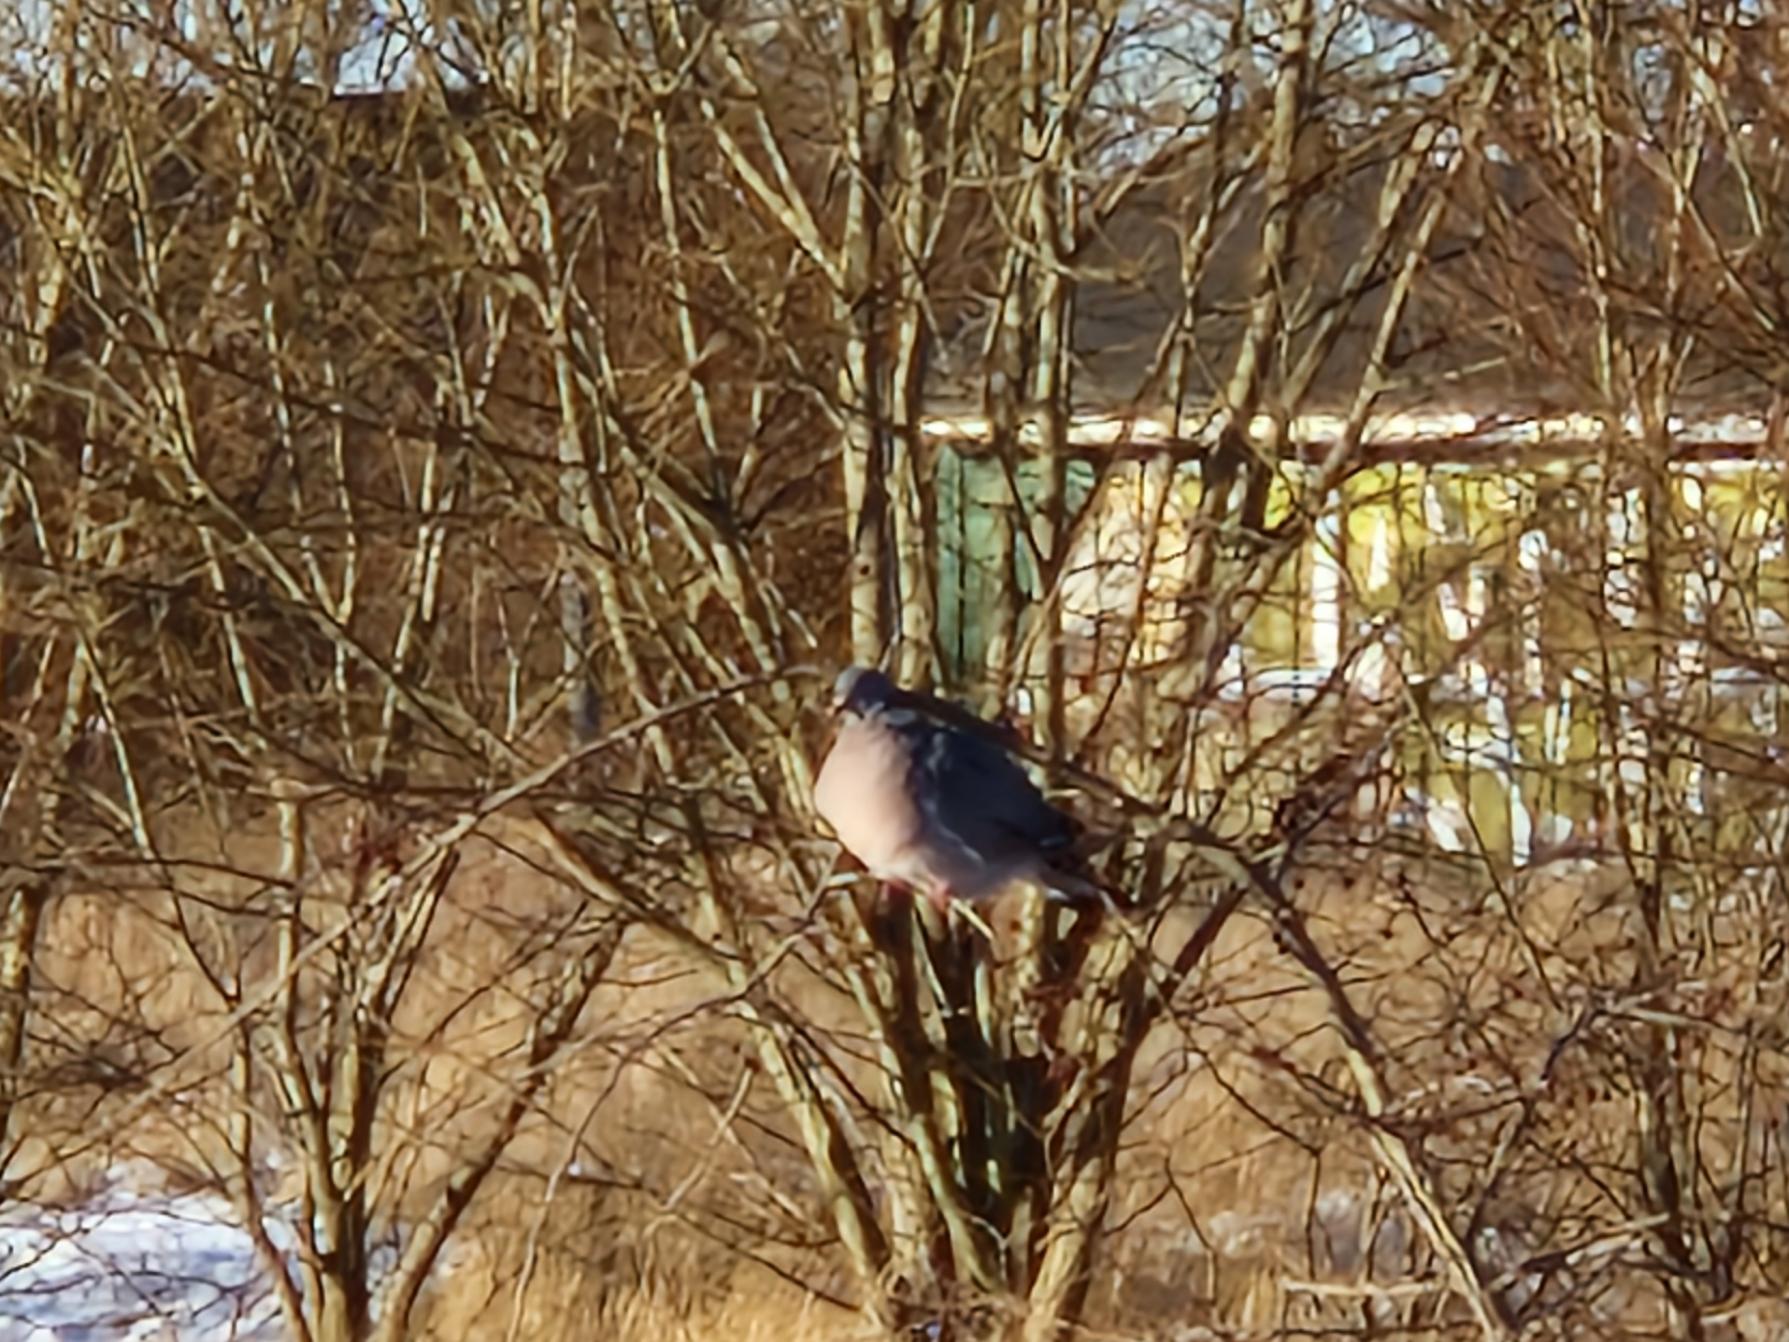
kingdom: Animalia
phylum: Chordata
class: Aves
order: Columbiformes
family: Columbidae
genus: Columba
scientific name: Columba palumbus
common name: Ringdue
